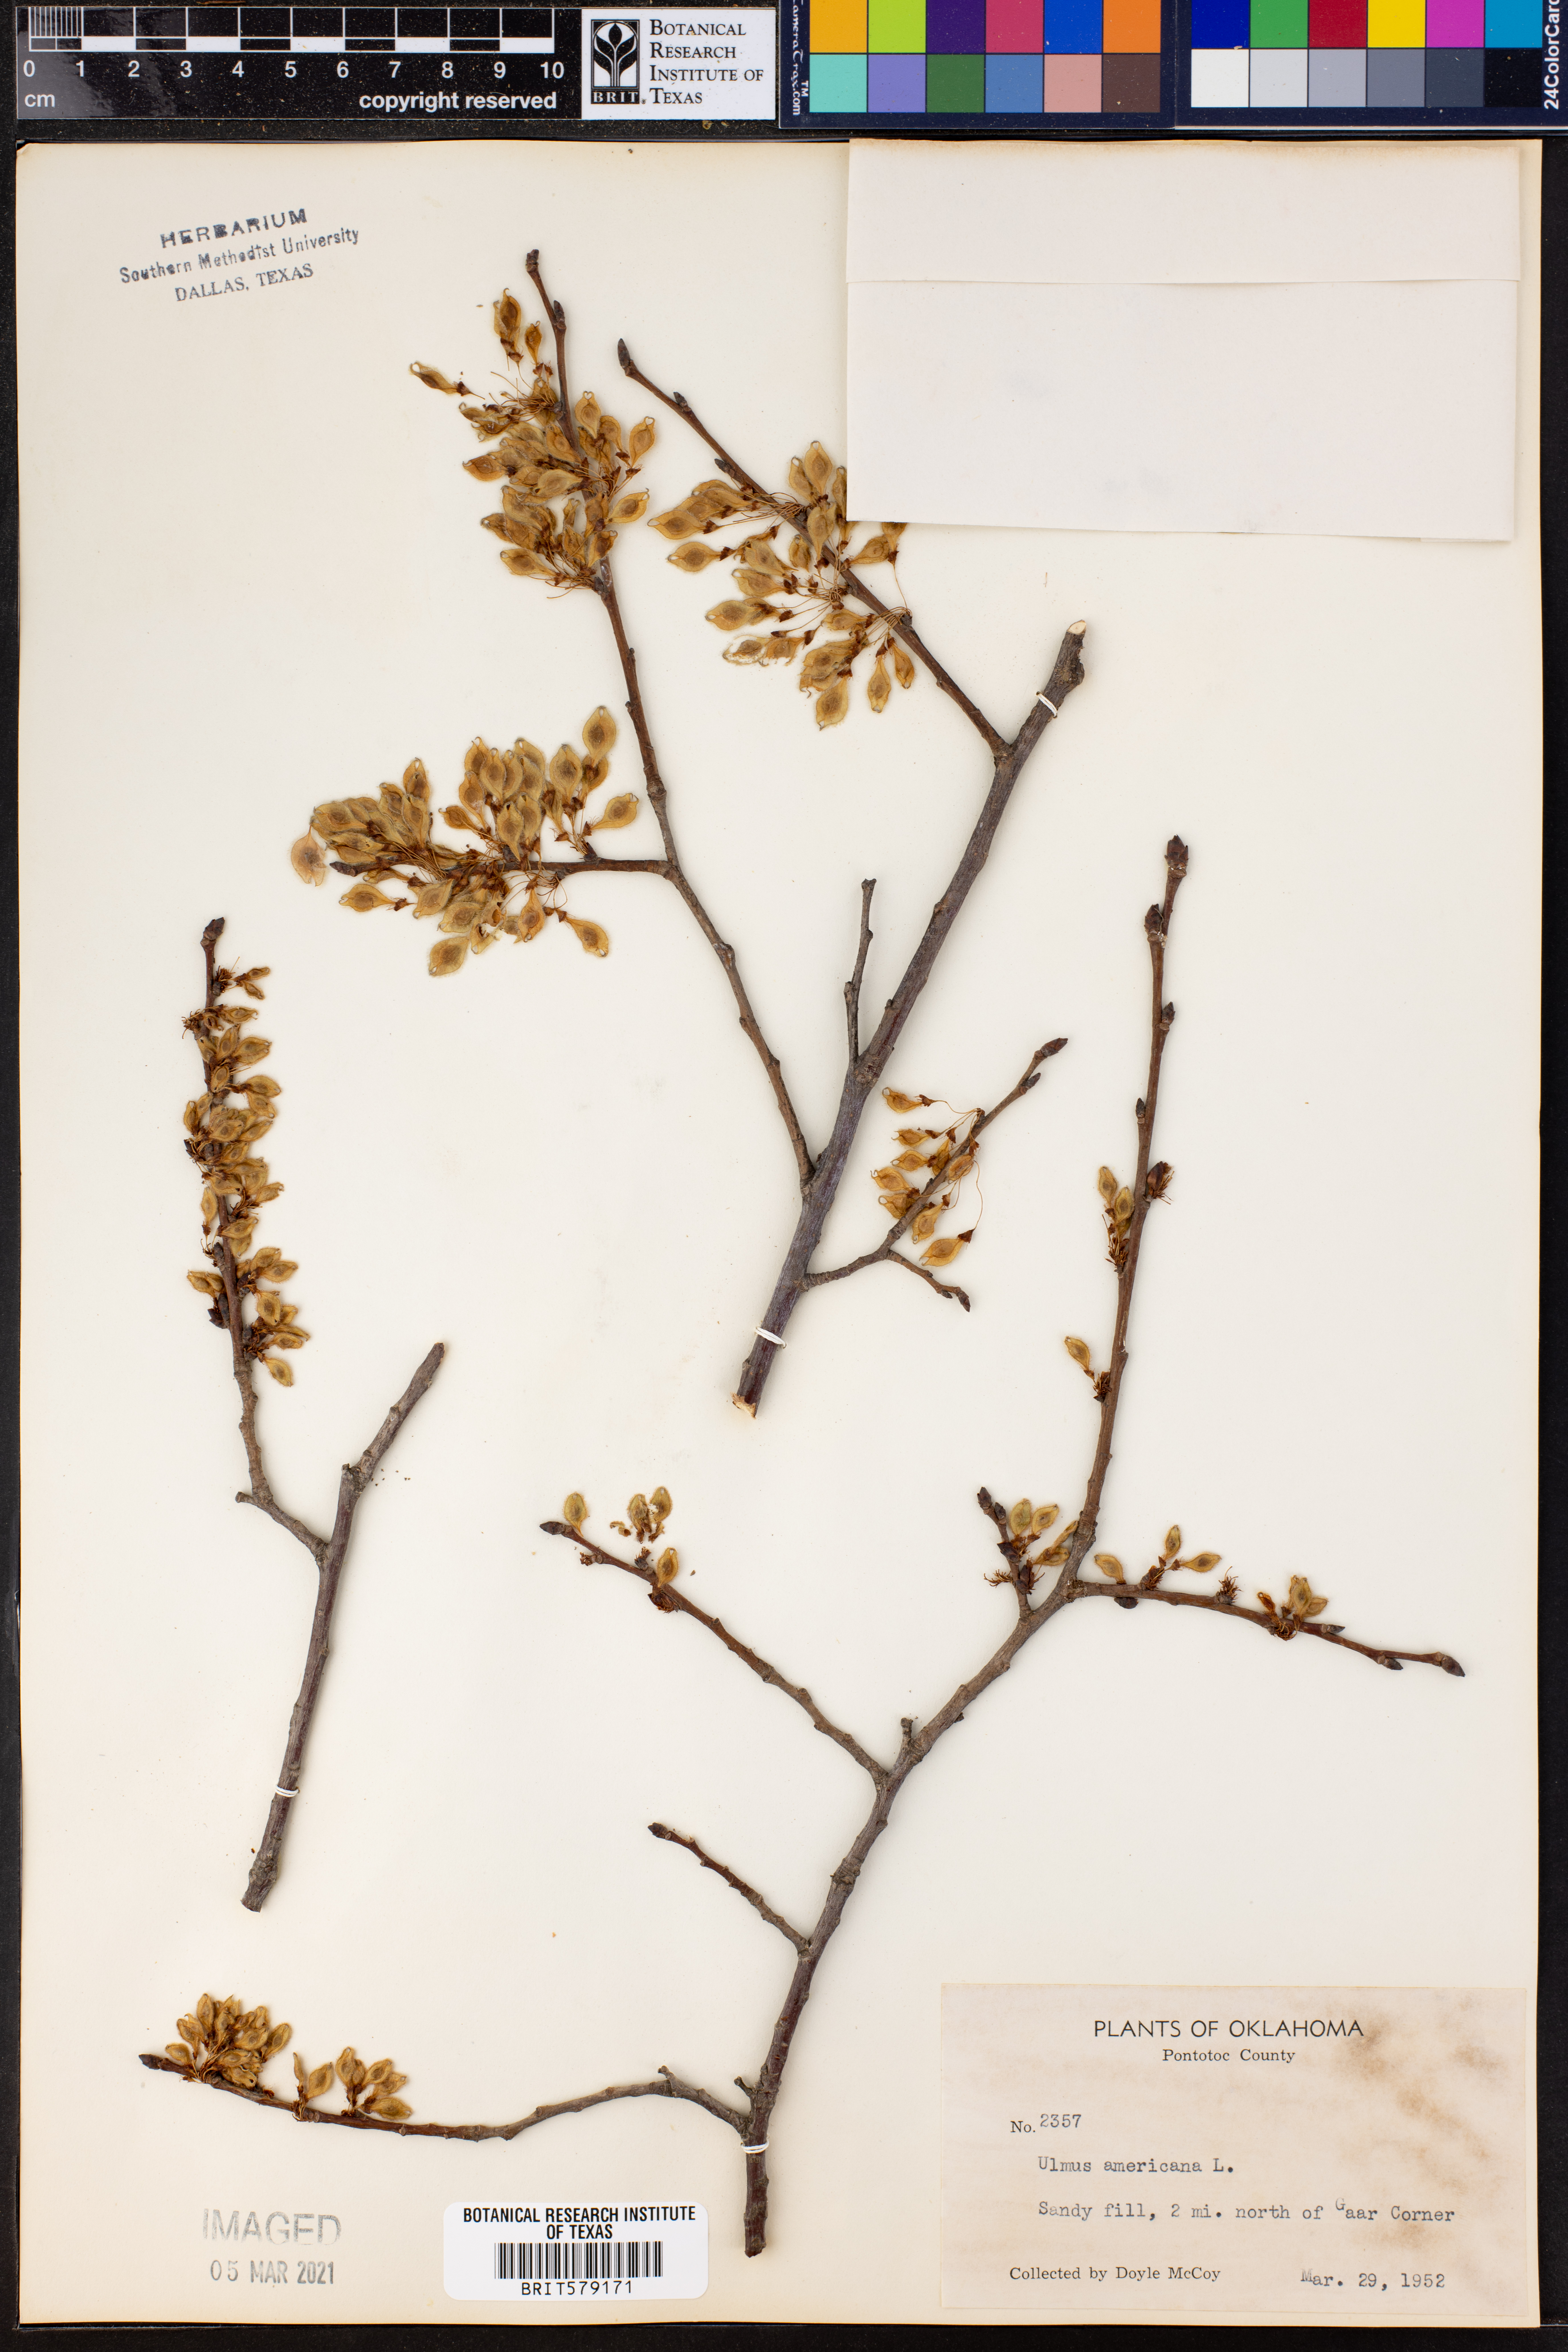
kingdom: Plantae
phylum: Tracheophyta
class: Magnoliopsida
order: Rosales
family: Ulmaceae
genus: Ulmus
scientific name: Ulmus americana
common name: American elm
